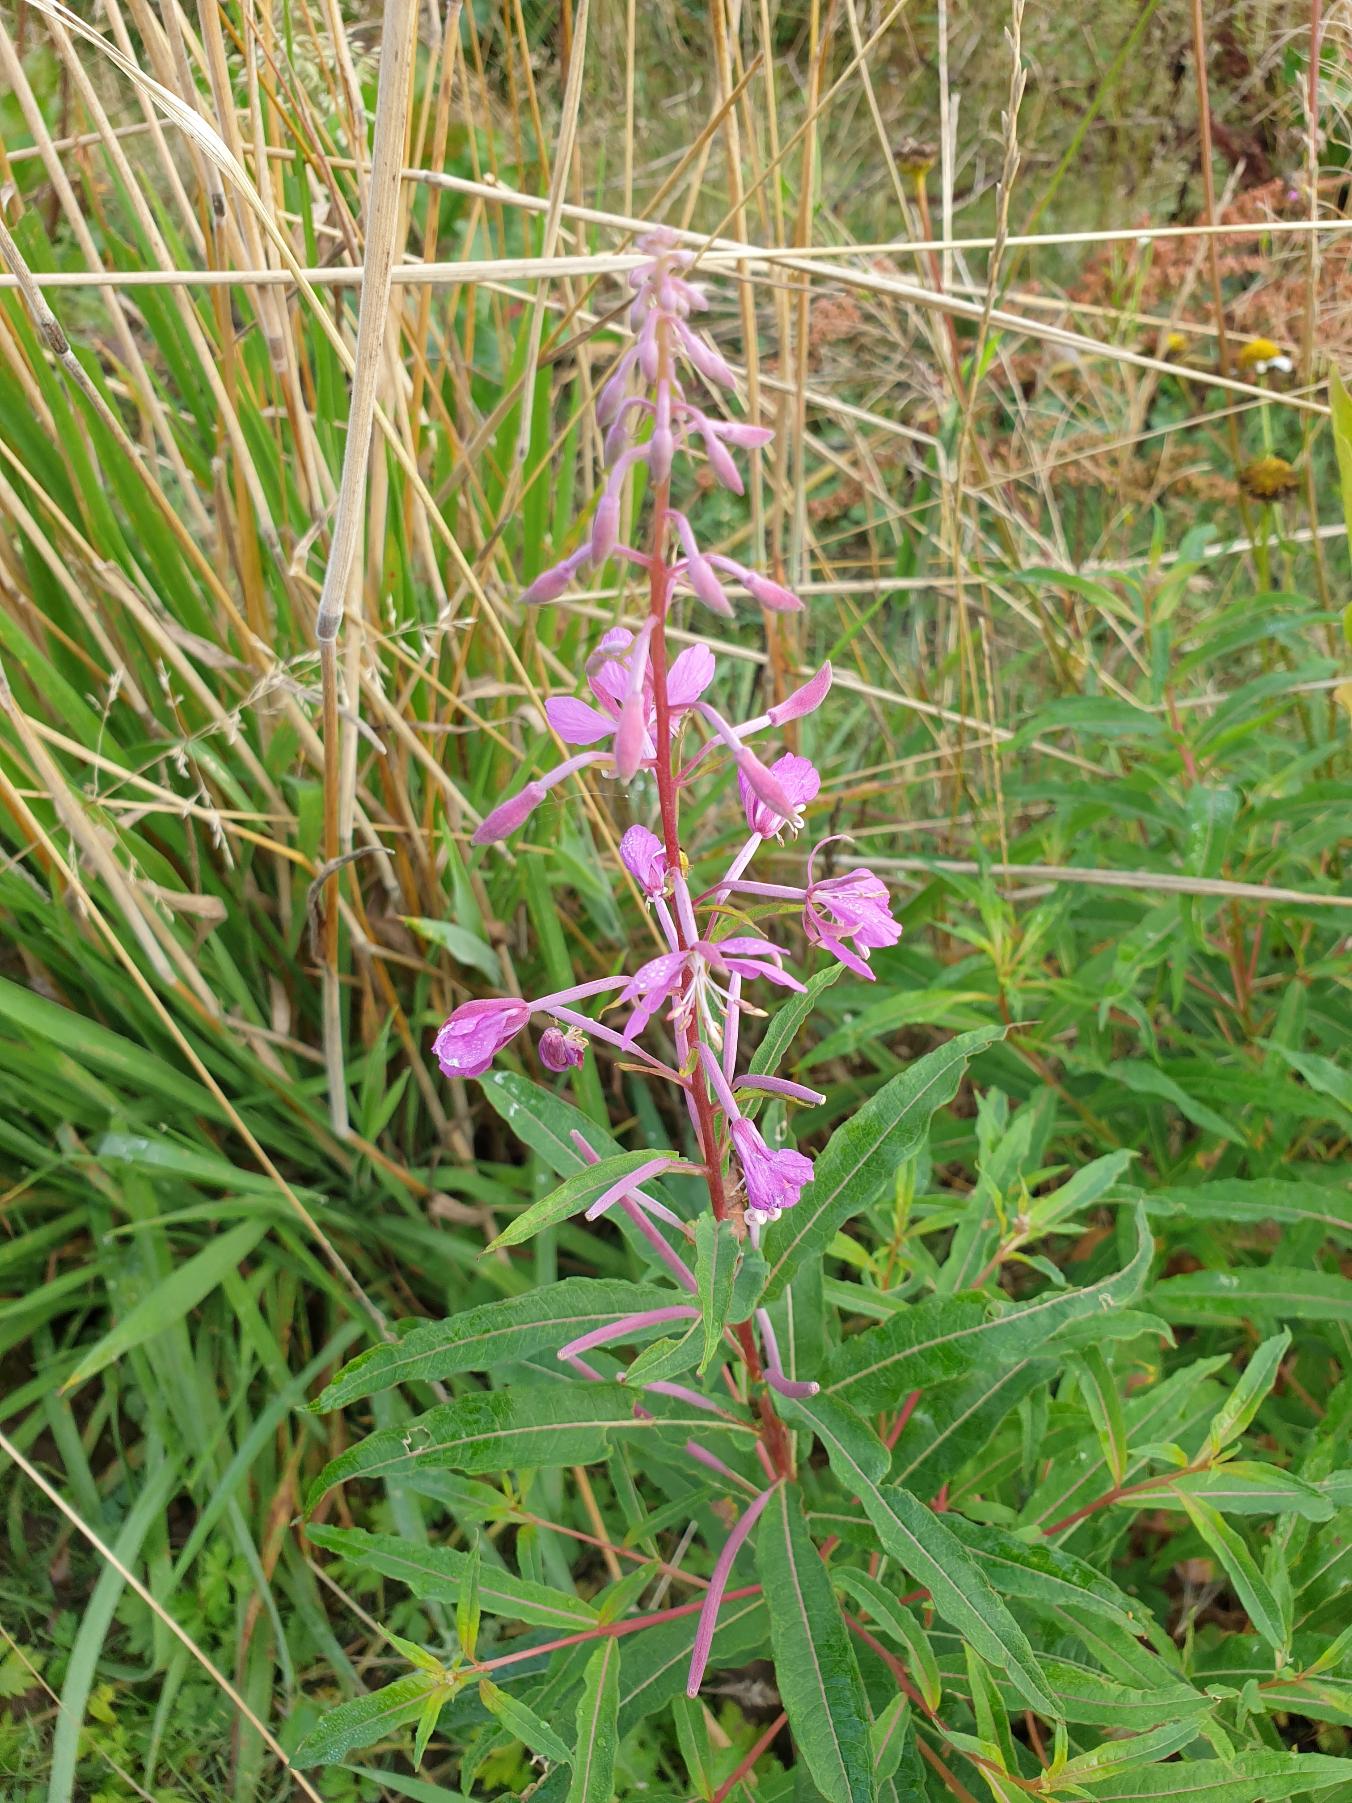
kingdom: Plantae
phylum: Tracheophyta
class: Magnoliopsida
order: Myrtales
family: Onagraceae
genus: Chamaenerion
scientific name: Chamaenerion angustifolium
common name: Gederams
